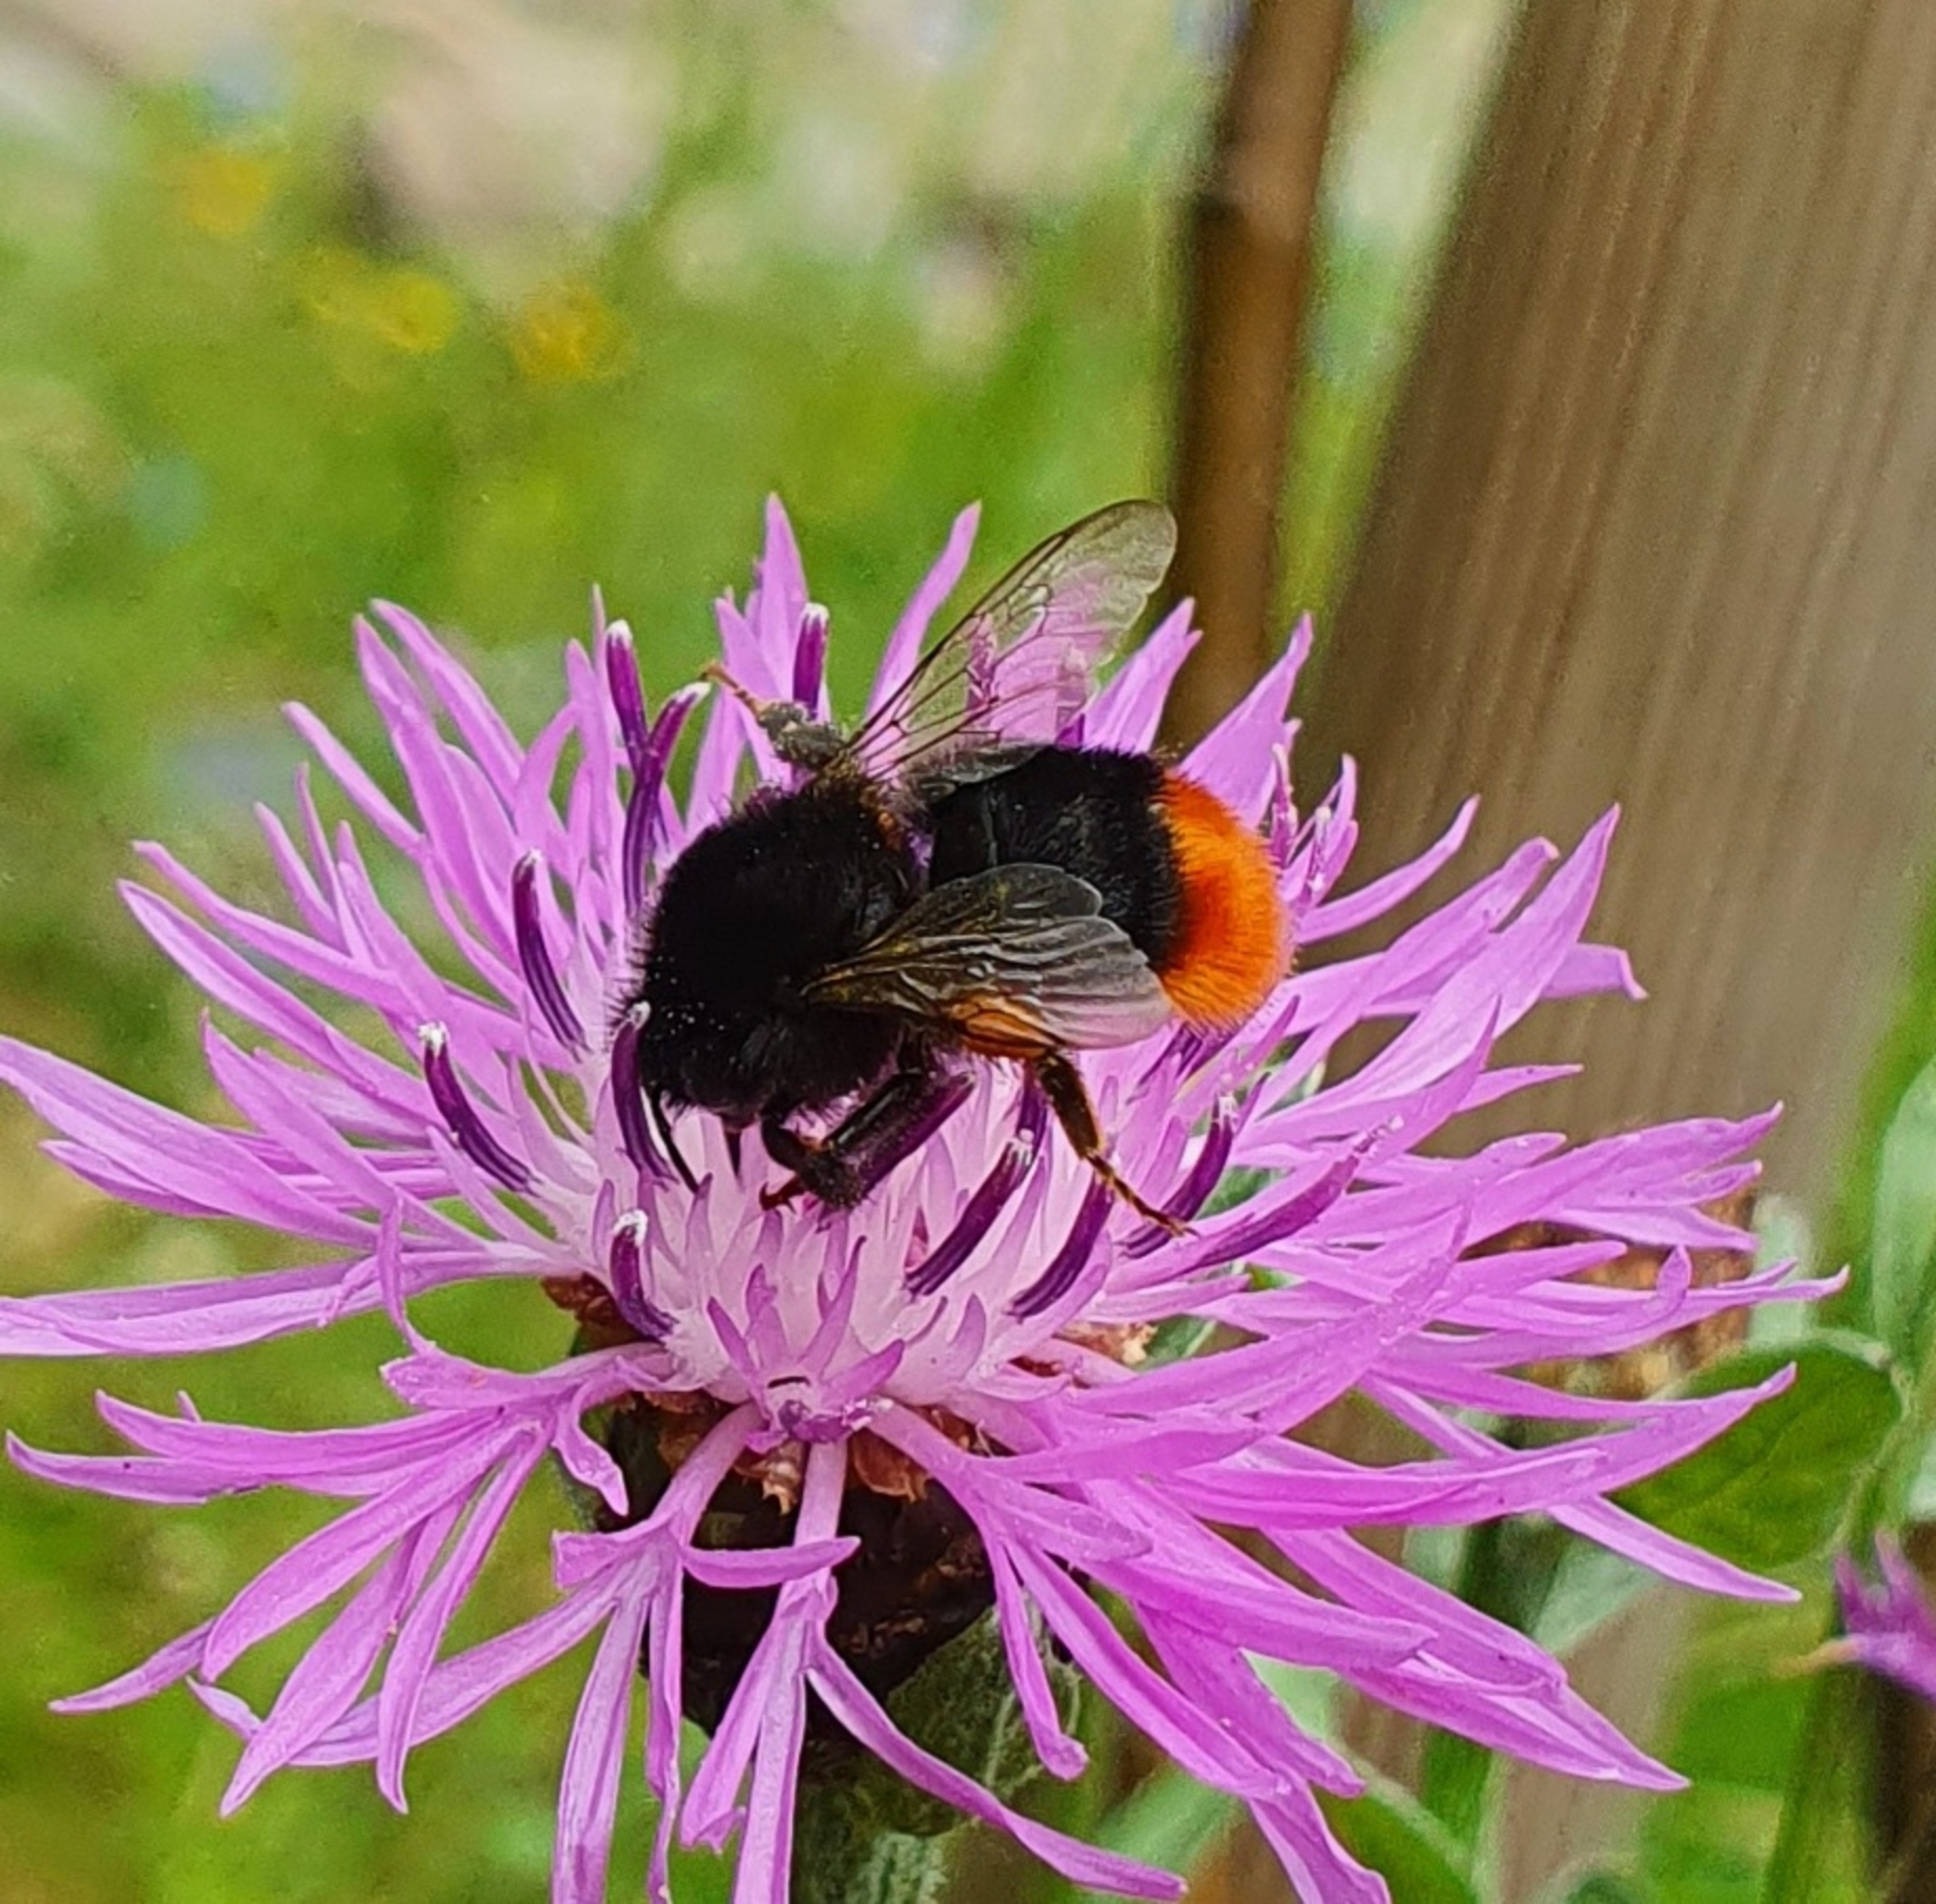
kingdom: Animalia
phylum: Arthropoda
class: Insecta
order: Hymenoptera
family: Apidae
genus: Bombus
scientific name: Bombus lapidarius
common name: Stenhumle
